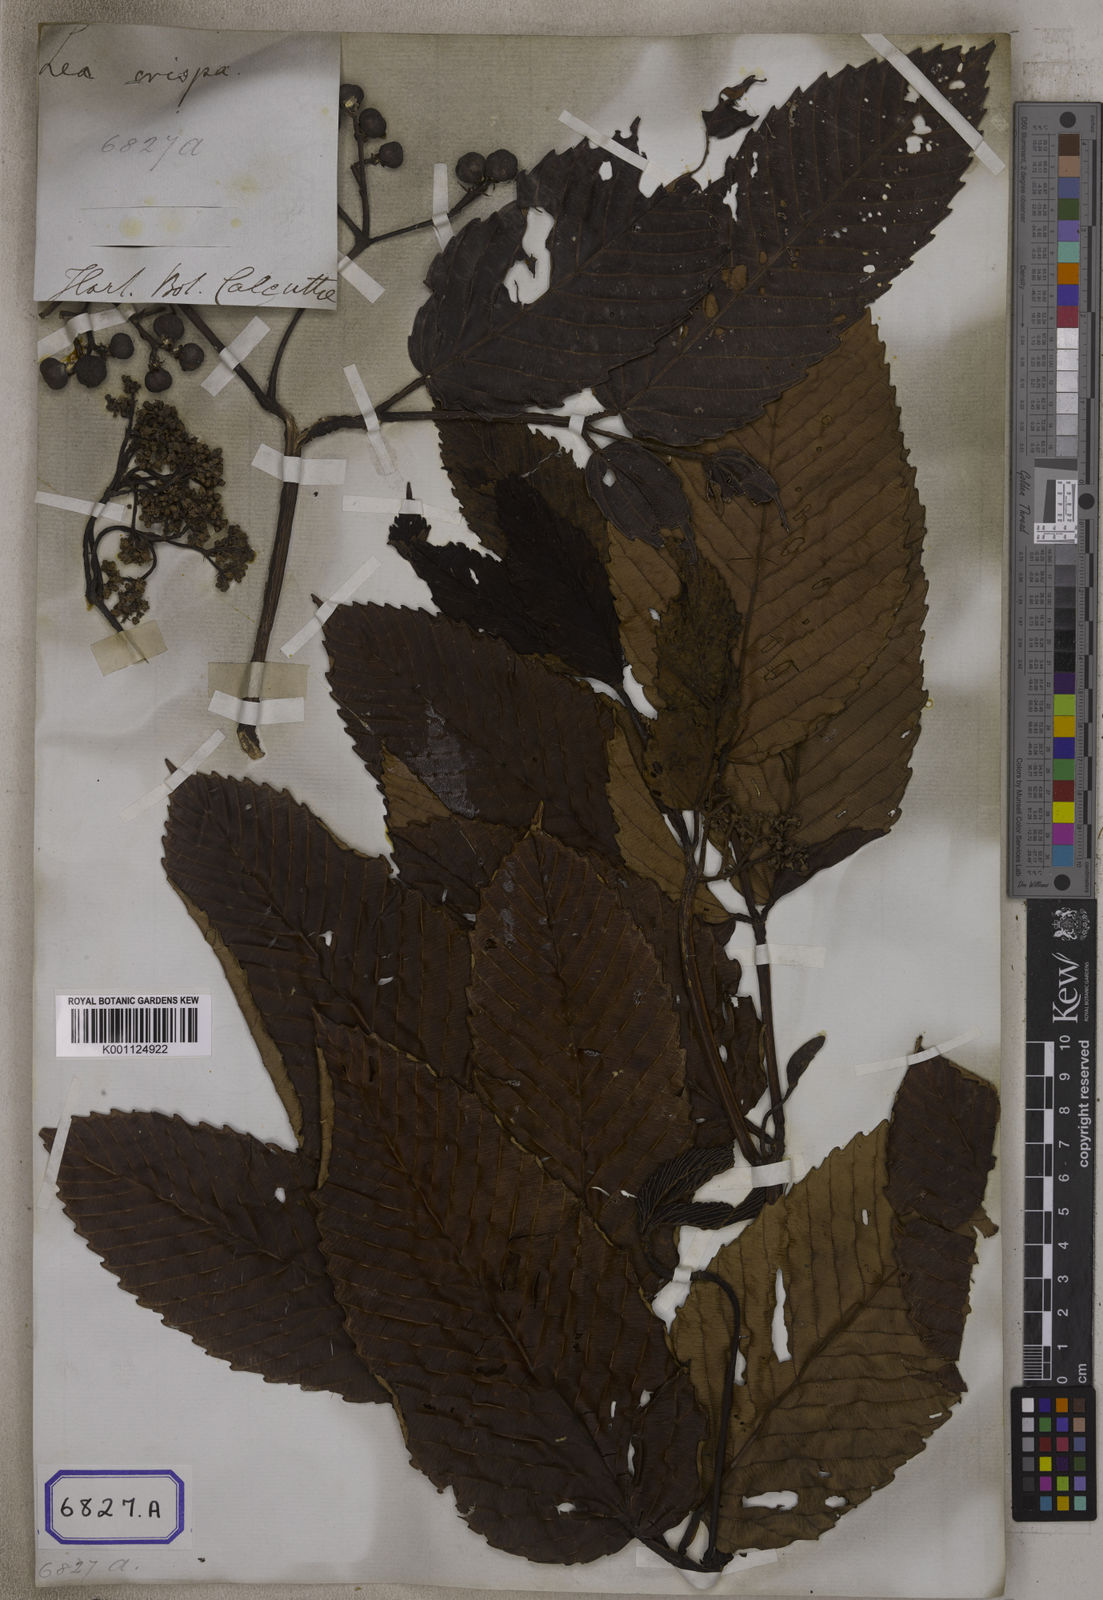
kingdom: Plantae
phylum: Tracheophyta
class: Magnoliopsida
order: Vitales
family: Vitaceae
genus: Leea
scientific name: Leea asiatica
